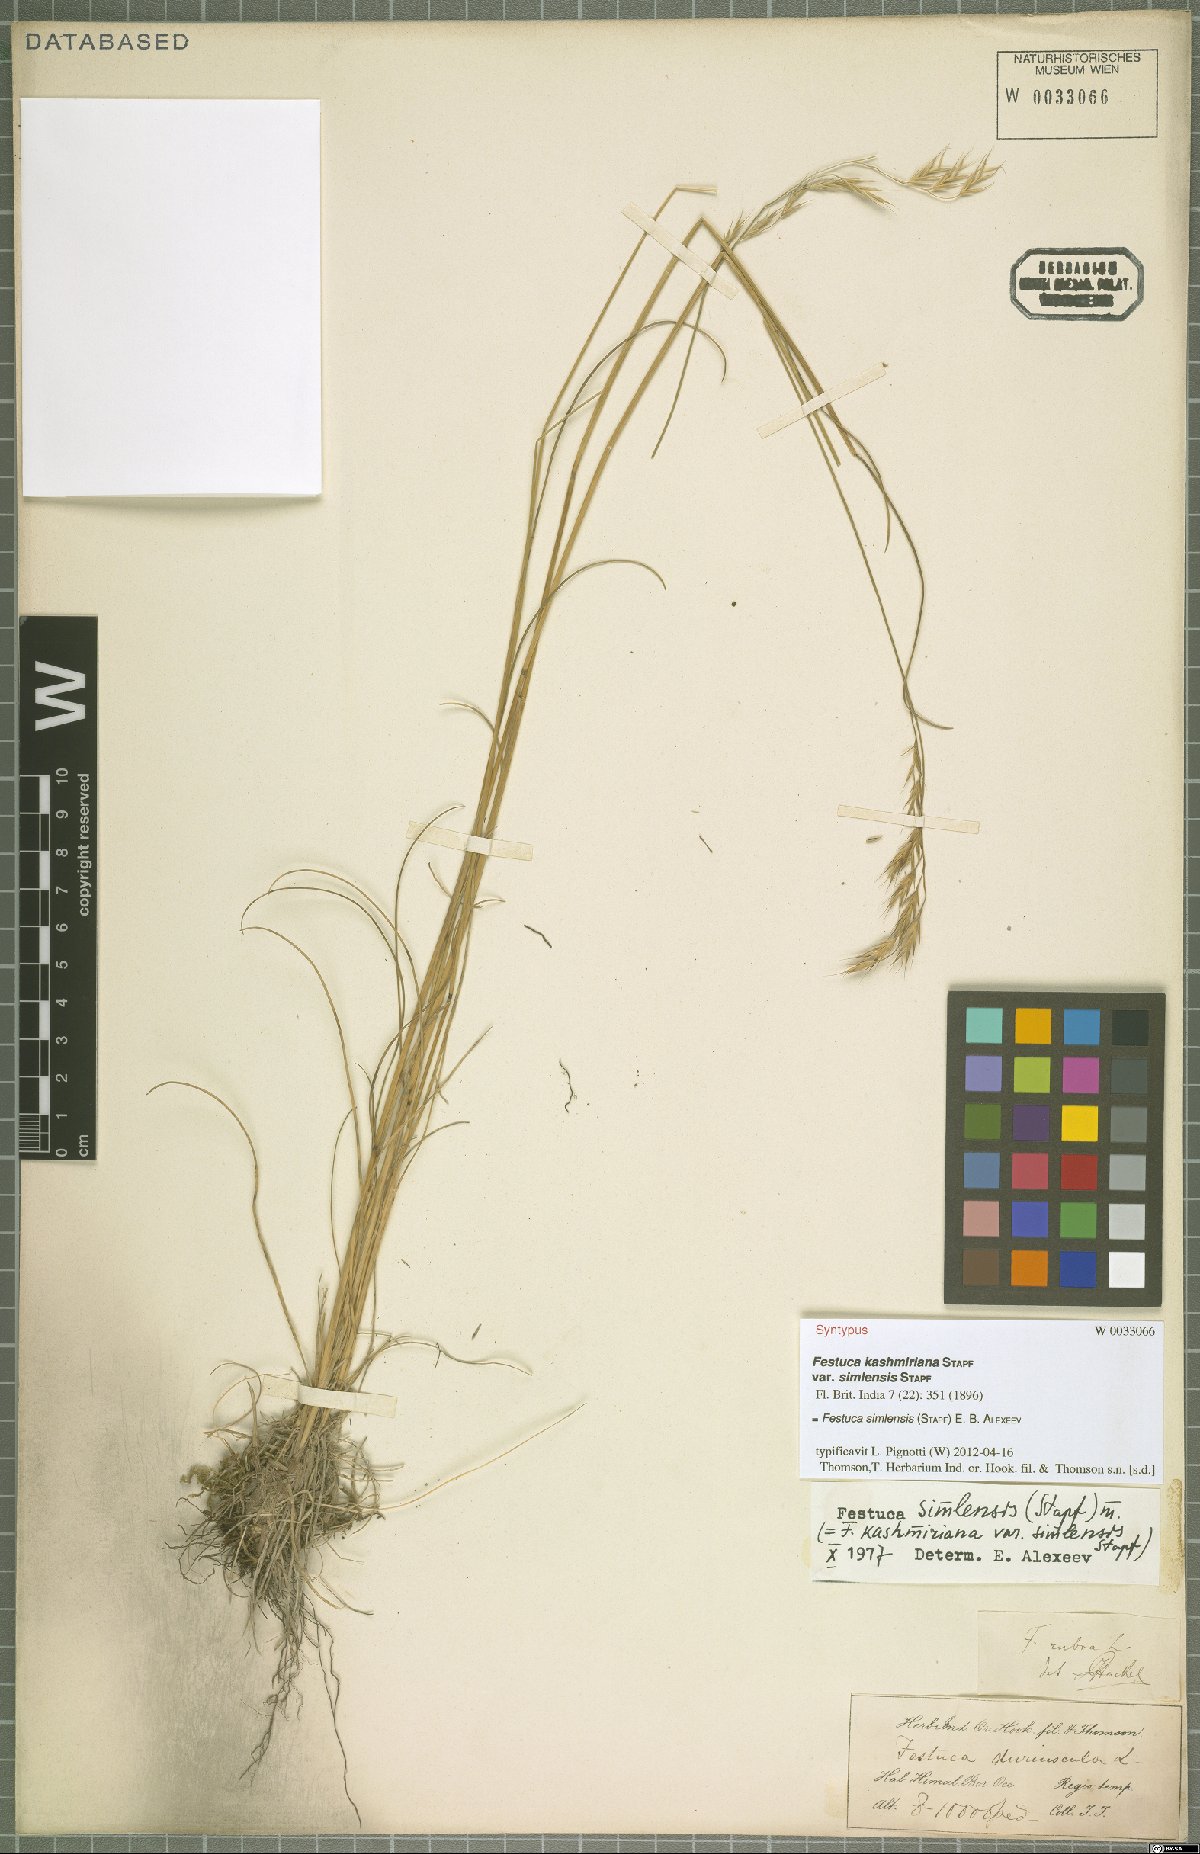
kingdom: Plantae
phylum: Tracheophyta
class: Liliopsida
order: Poales
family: Poaceae
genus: Festuca
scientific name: Festuca simlensis
